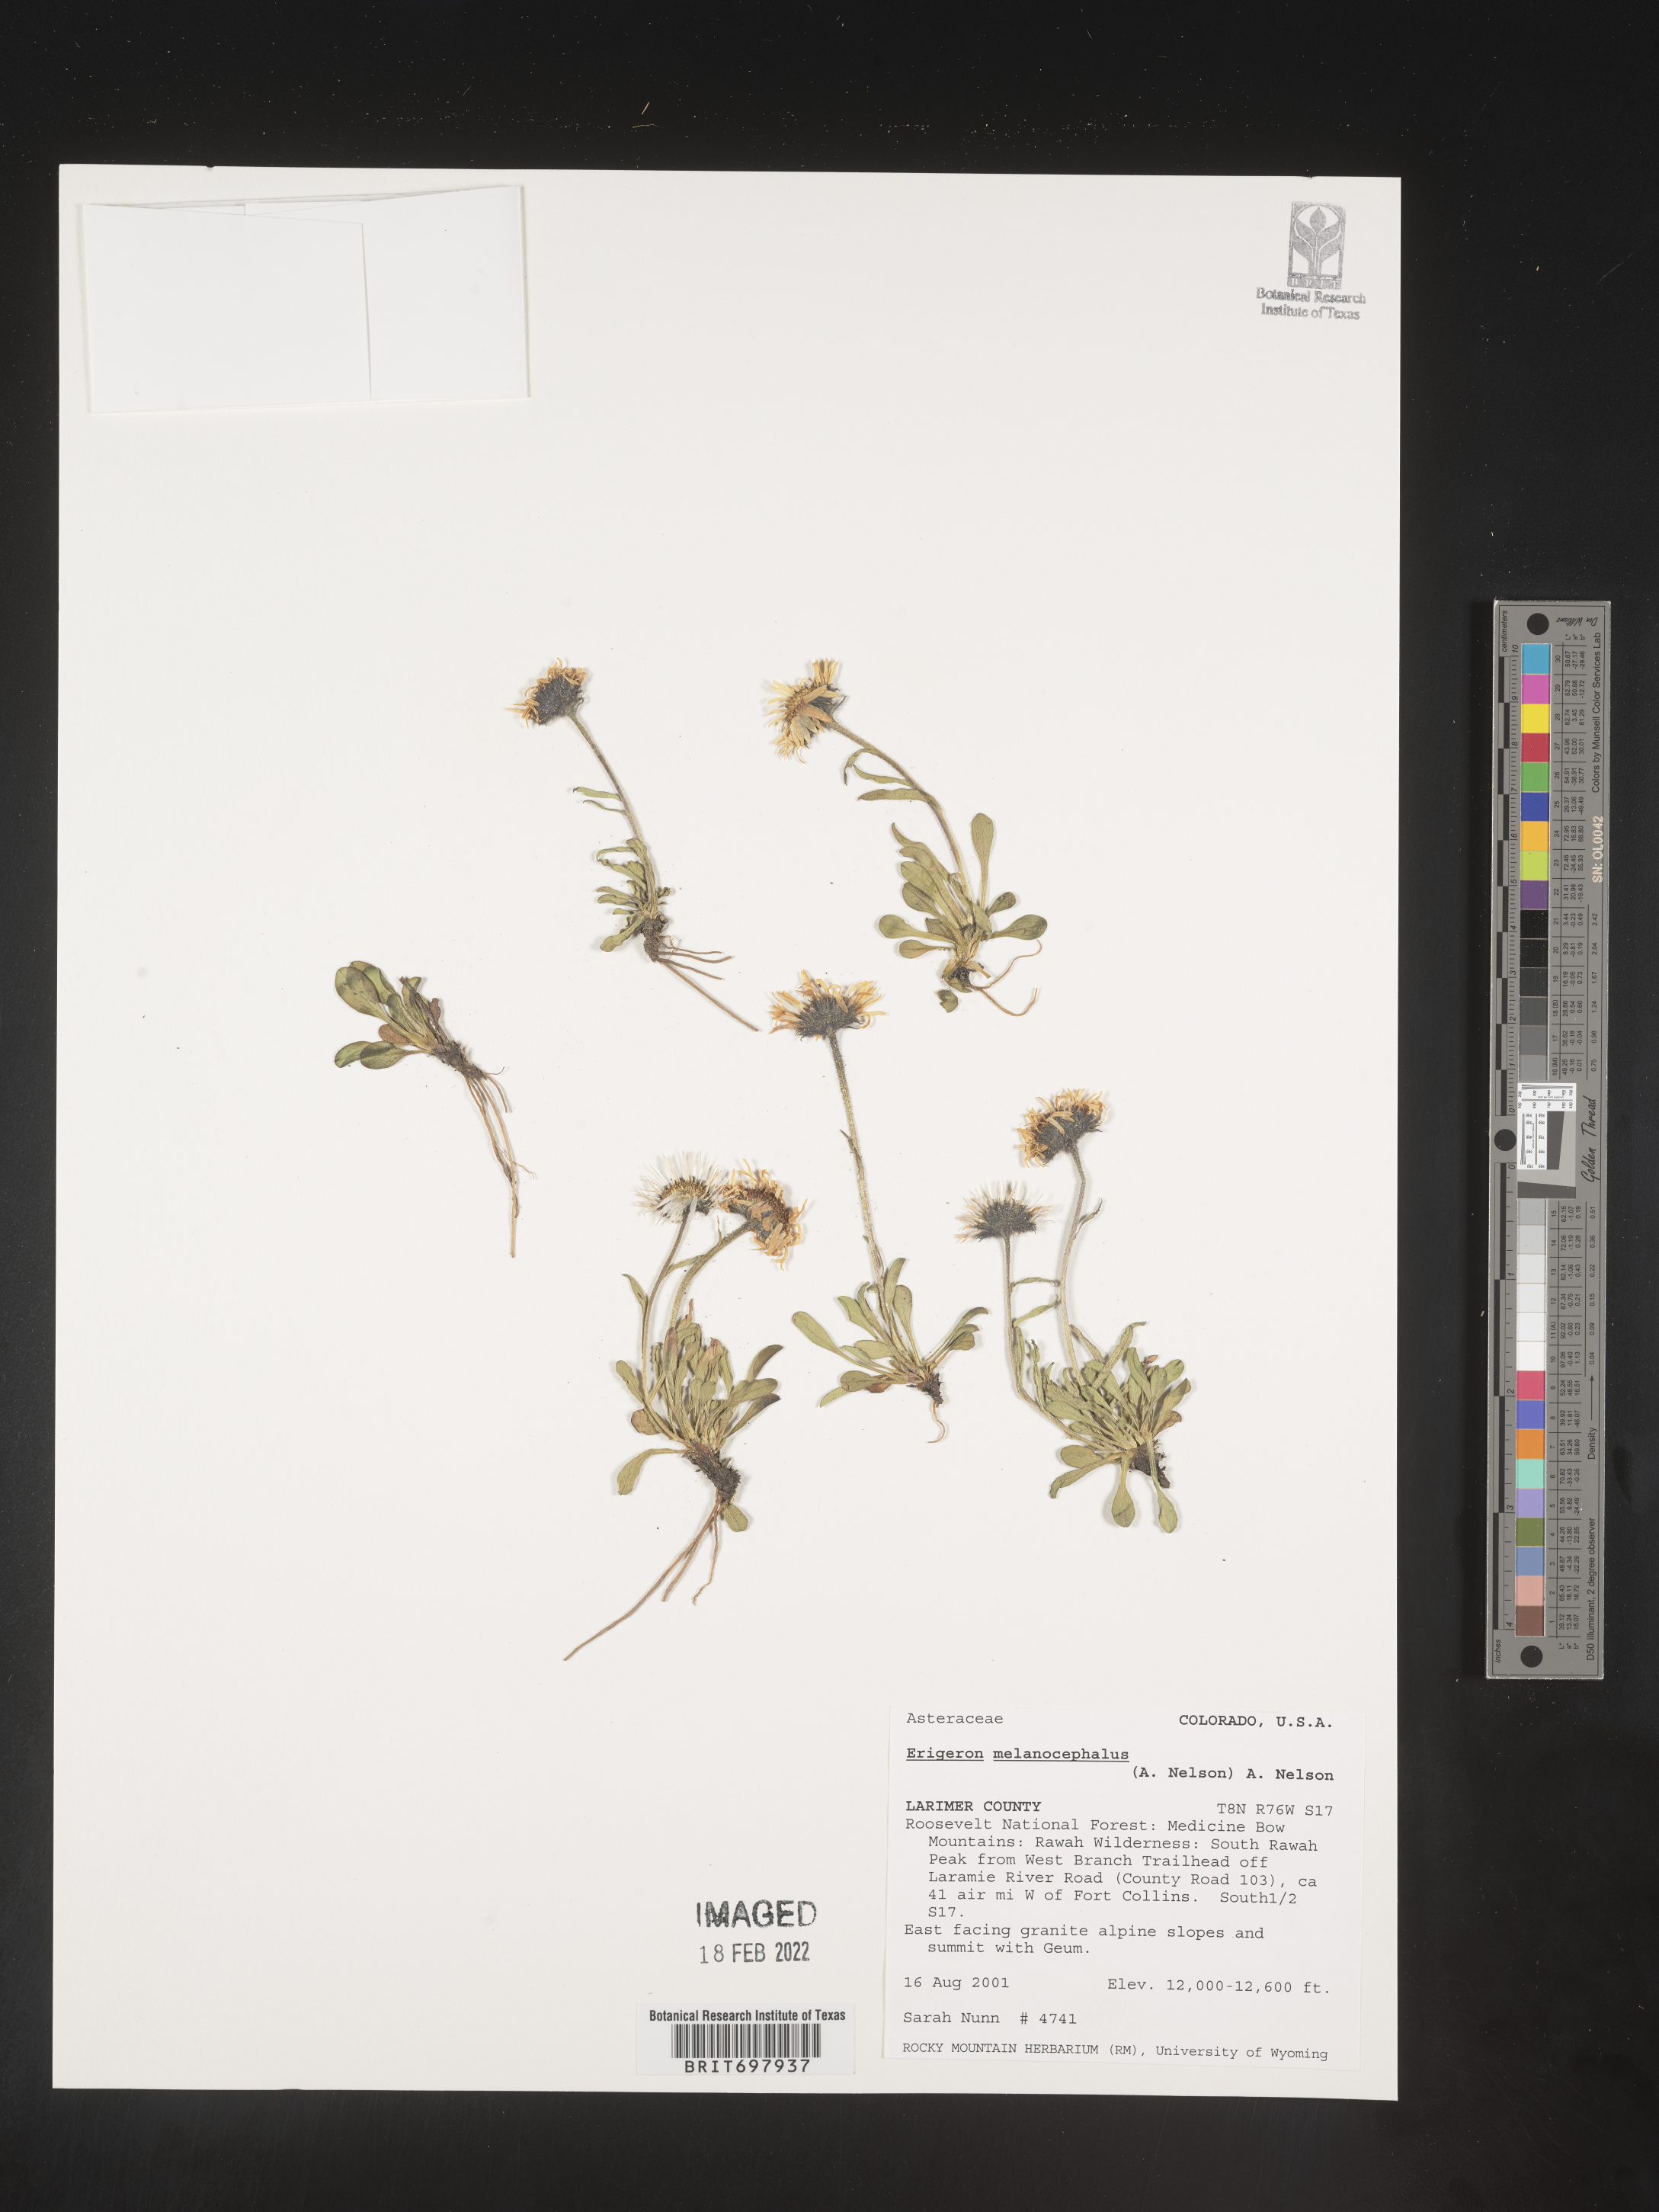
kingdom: Plantae
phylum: Tracheophyta
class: Magnoliopsida
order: Asterales
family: Asteraceae
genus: Erigeron
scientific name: Erigeron melanocephalus
